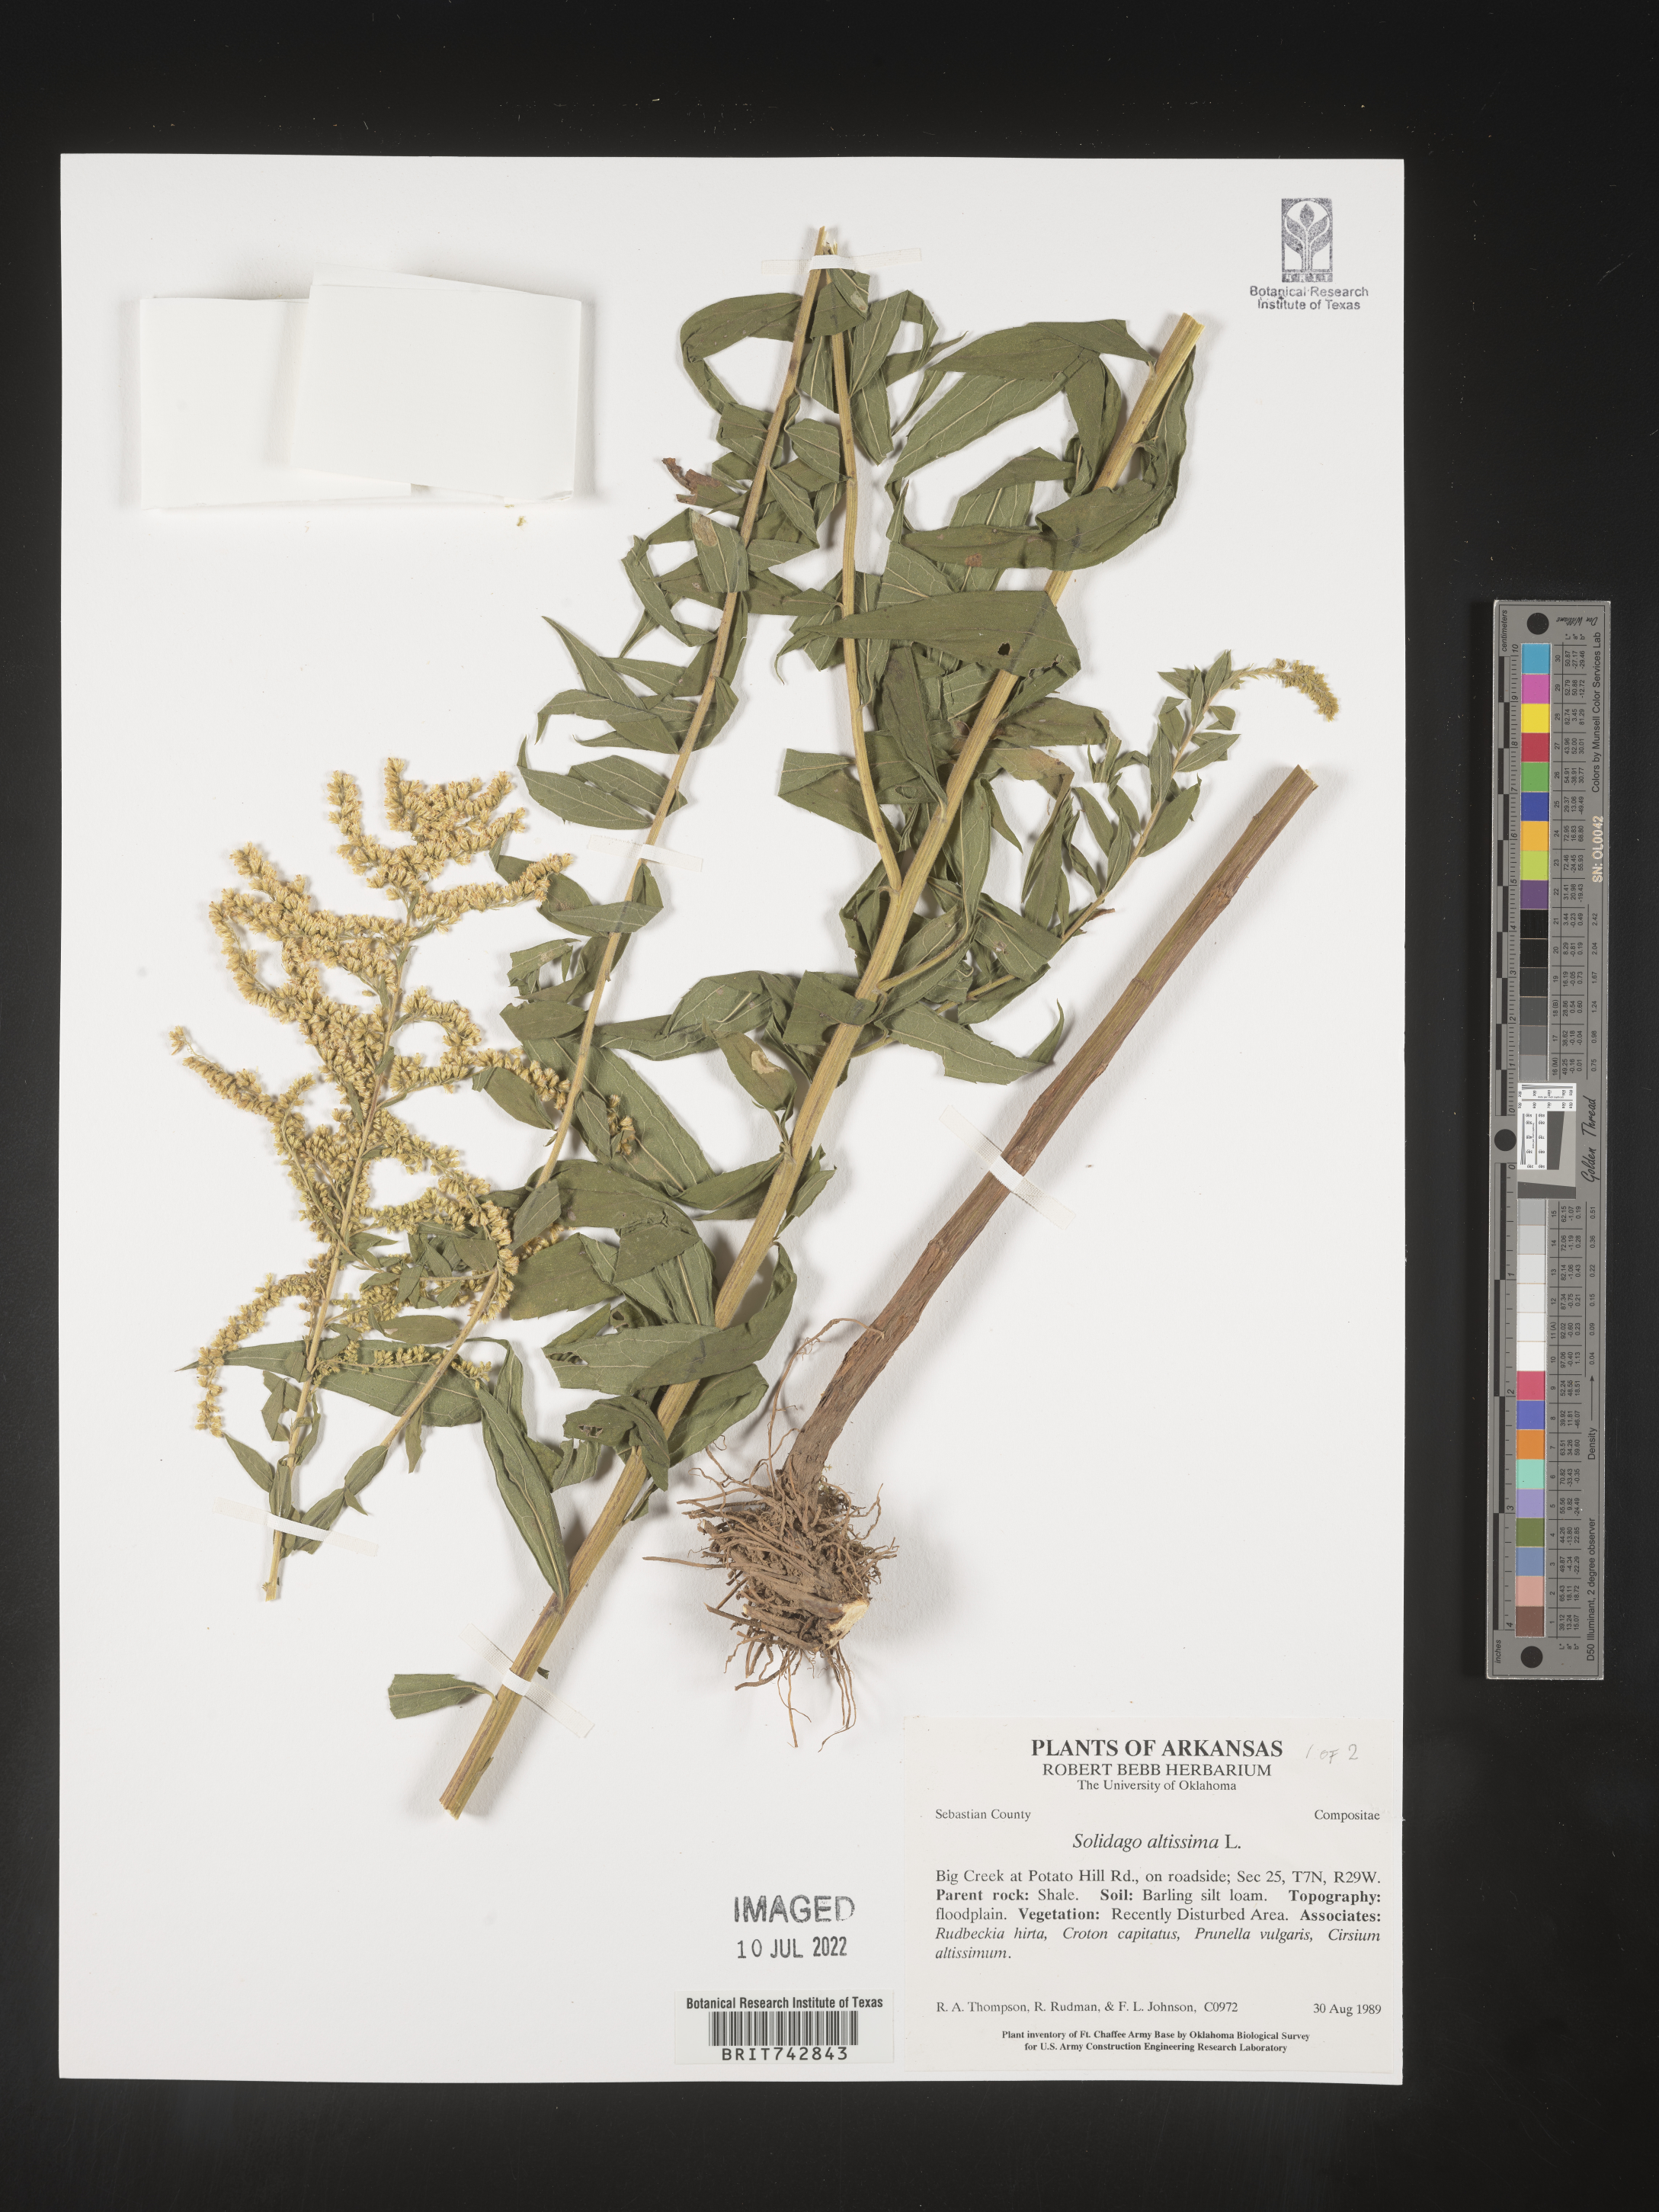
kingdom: Plantae
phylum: Tracheophyta
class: Magnoliopsida
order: Asterales
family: Asteraceae
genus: Solidago
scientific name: Solidago altissima
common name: Late goldenrod
